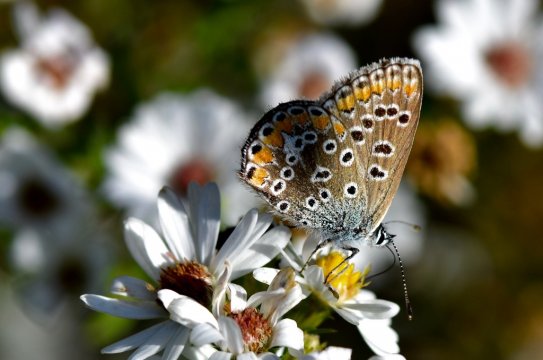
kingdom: Animalia
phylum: Arthropoda
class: Insecta
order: Lepidoptera
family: Lycaenidae
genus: Polyommatus
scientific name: Polyommatus icarus
